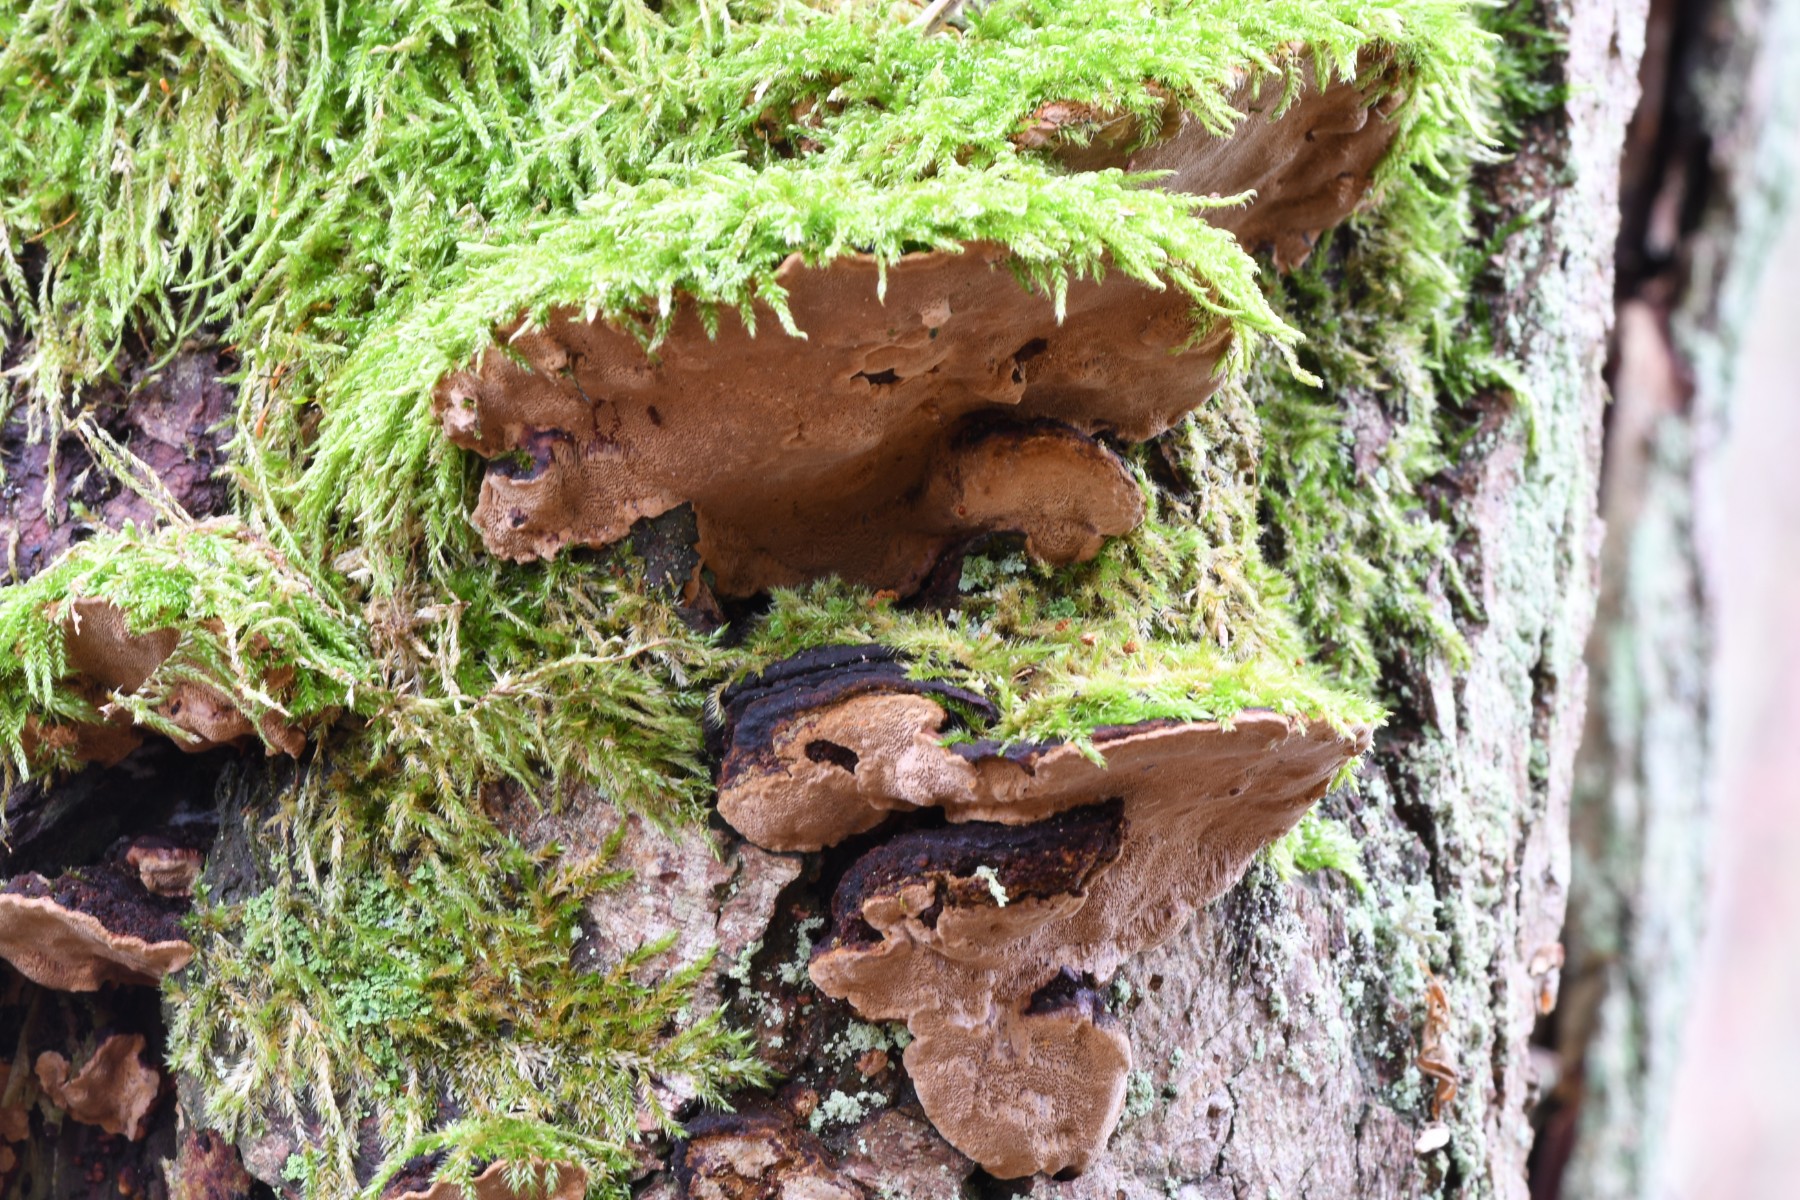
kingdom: Fungi
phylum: Basidiomycota
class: Agaricomycetes
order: Hymenochaetales
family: Hymenochaetaceae
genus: Phellinopsis
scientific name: Phellinopsis conchata
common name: pile-ildporesvamp
